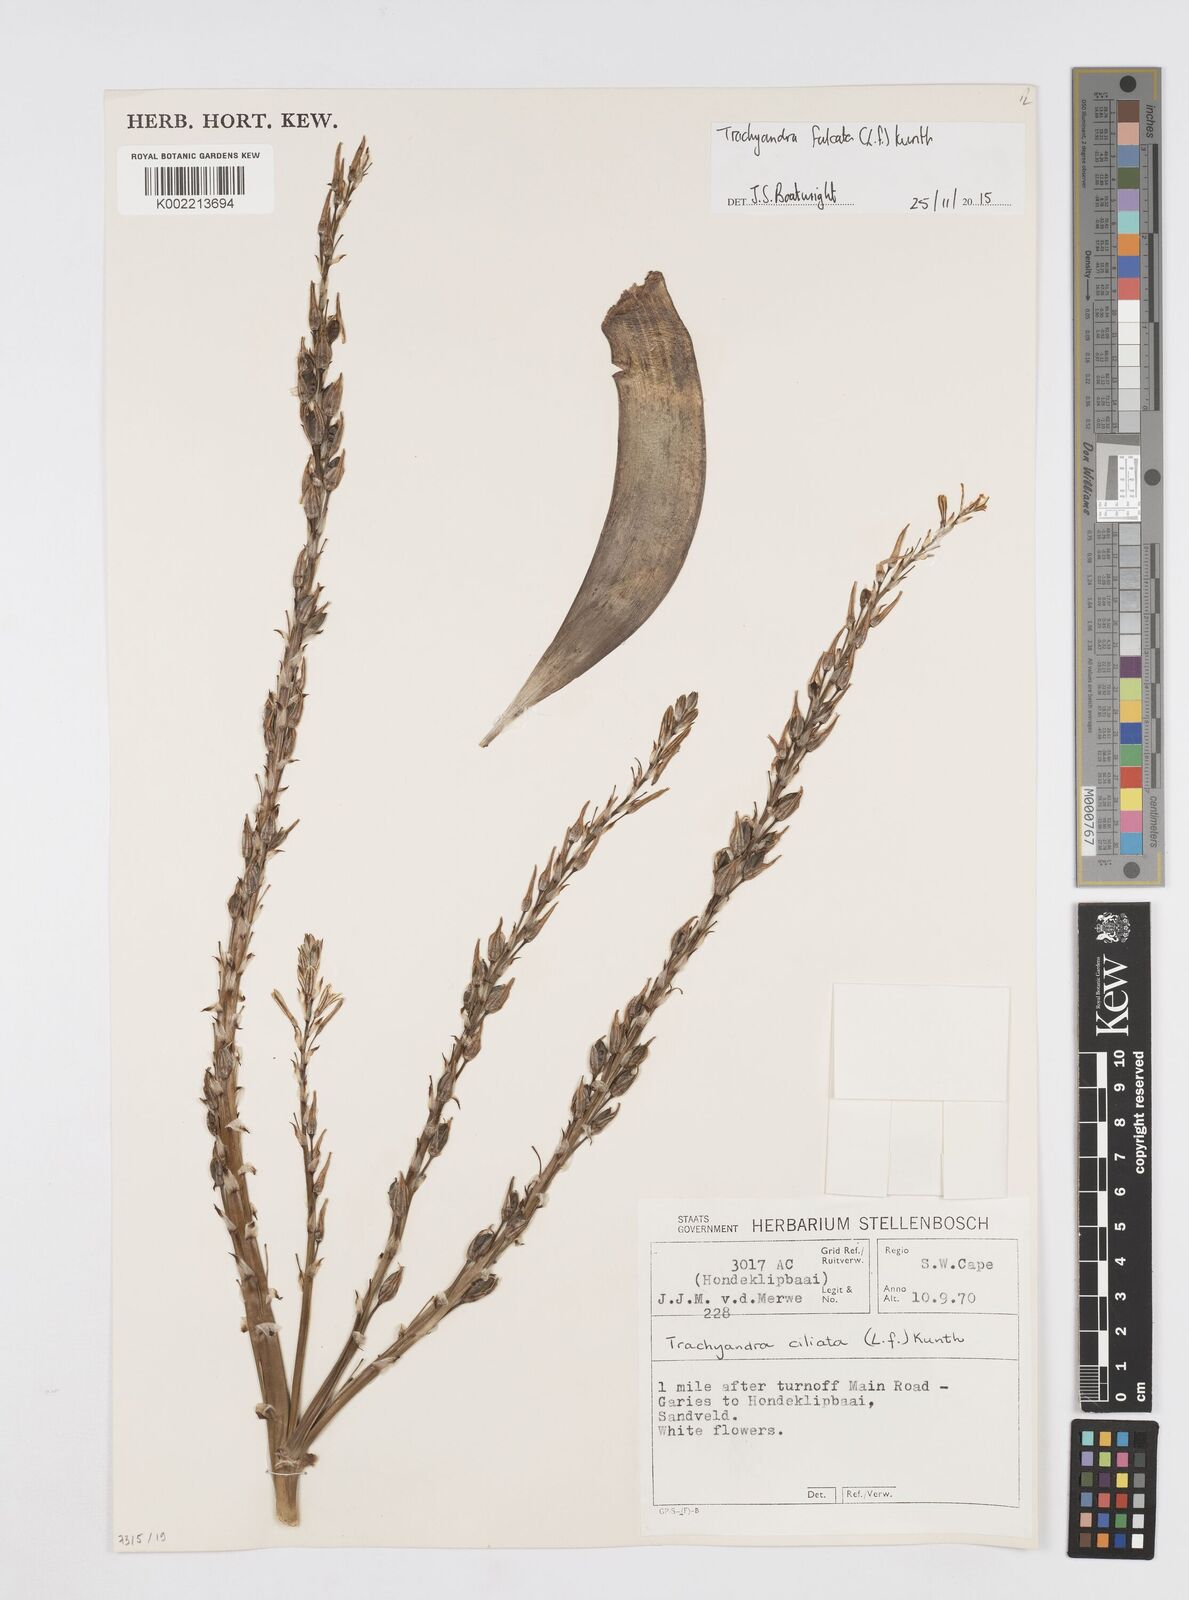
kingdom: Plantae
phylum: Tracheophyta
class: Liliopsida
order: Asparagales
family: Asphodelaceae
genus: Trachyandra
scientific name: Trachyandra falcata
